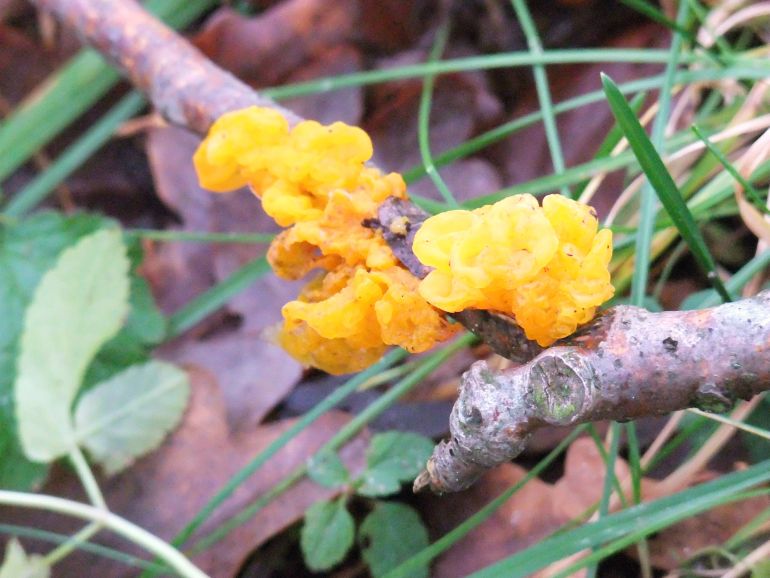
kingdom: Fungi
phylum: Basidiomycota
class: Tremellomycetes
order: Tremellales
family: Tremellaceae
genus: Tremella
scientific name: Tremella mesenterica
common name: gul bævresvamp
